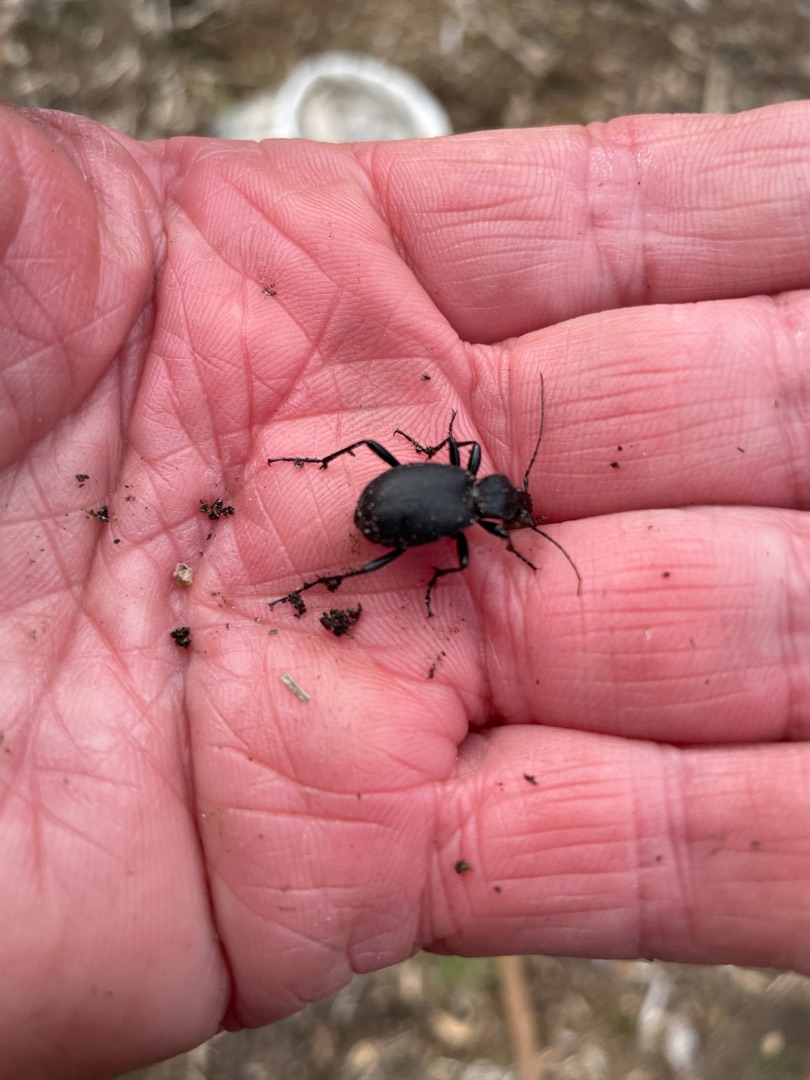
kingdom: Animalia
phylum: Arthropoda
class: Insecta
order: Coleoptera
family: Carabidae
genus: Cychrus
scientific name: Cychrus caraboides
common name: Sneglerøver
